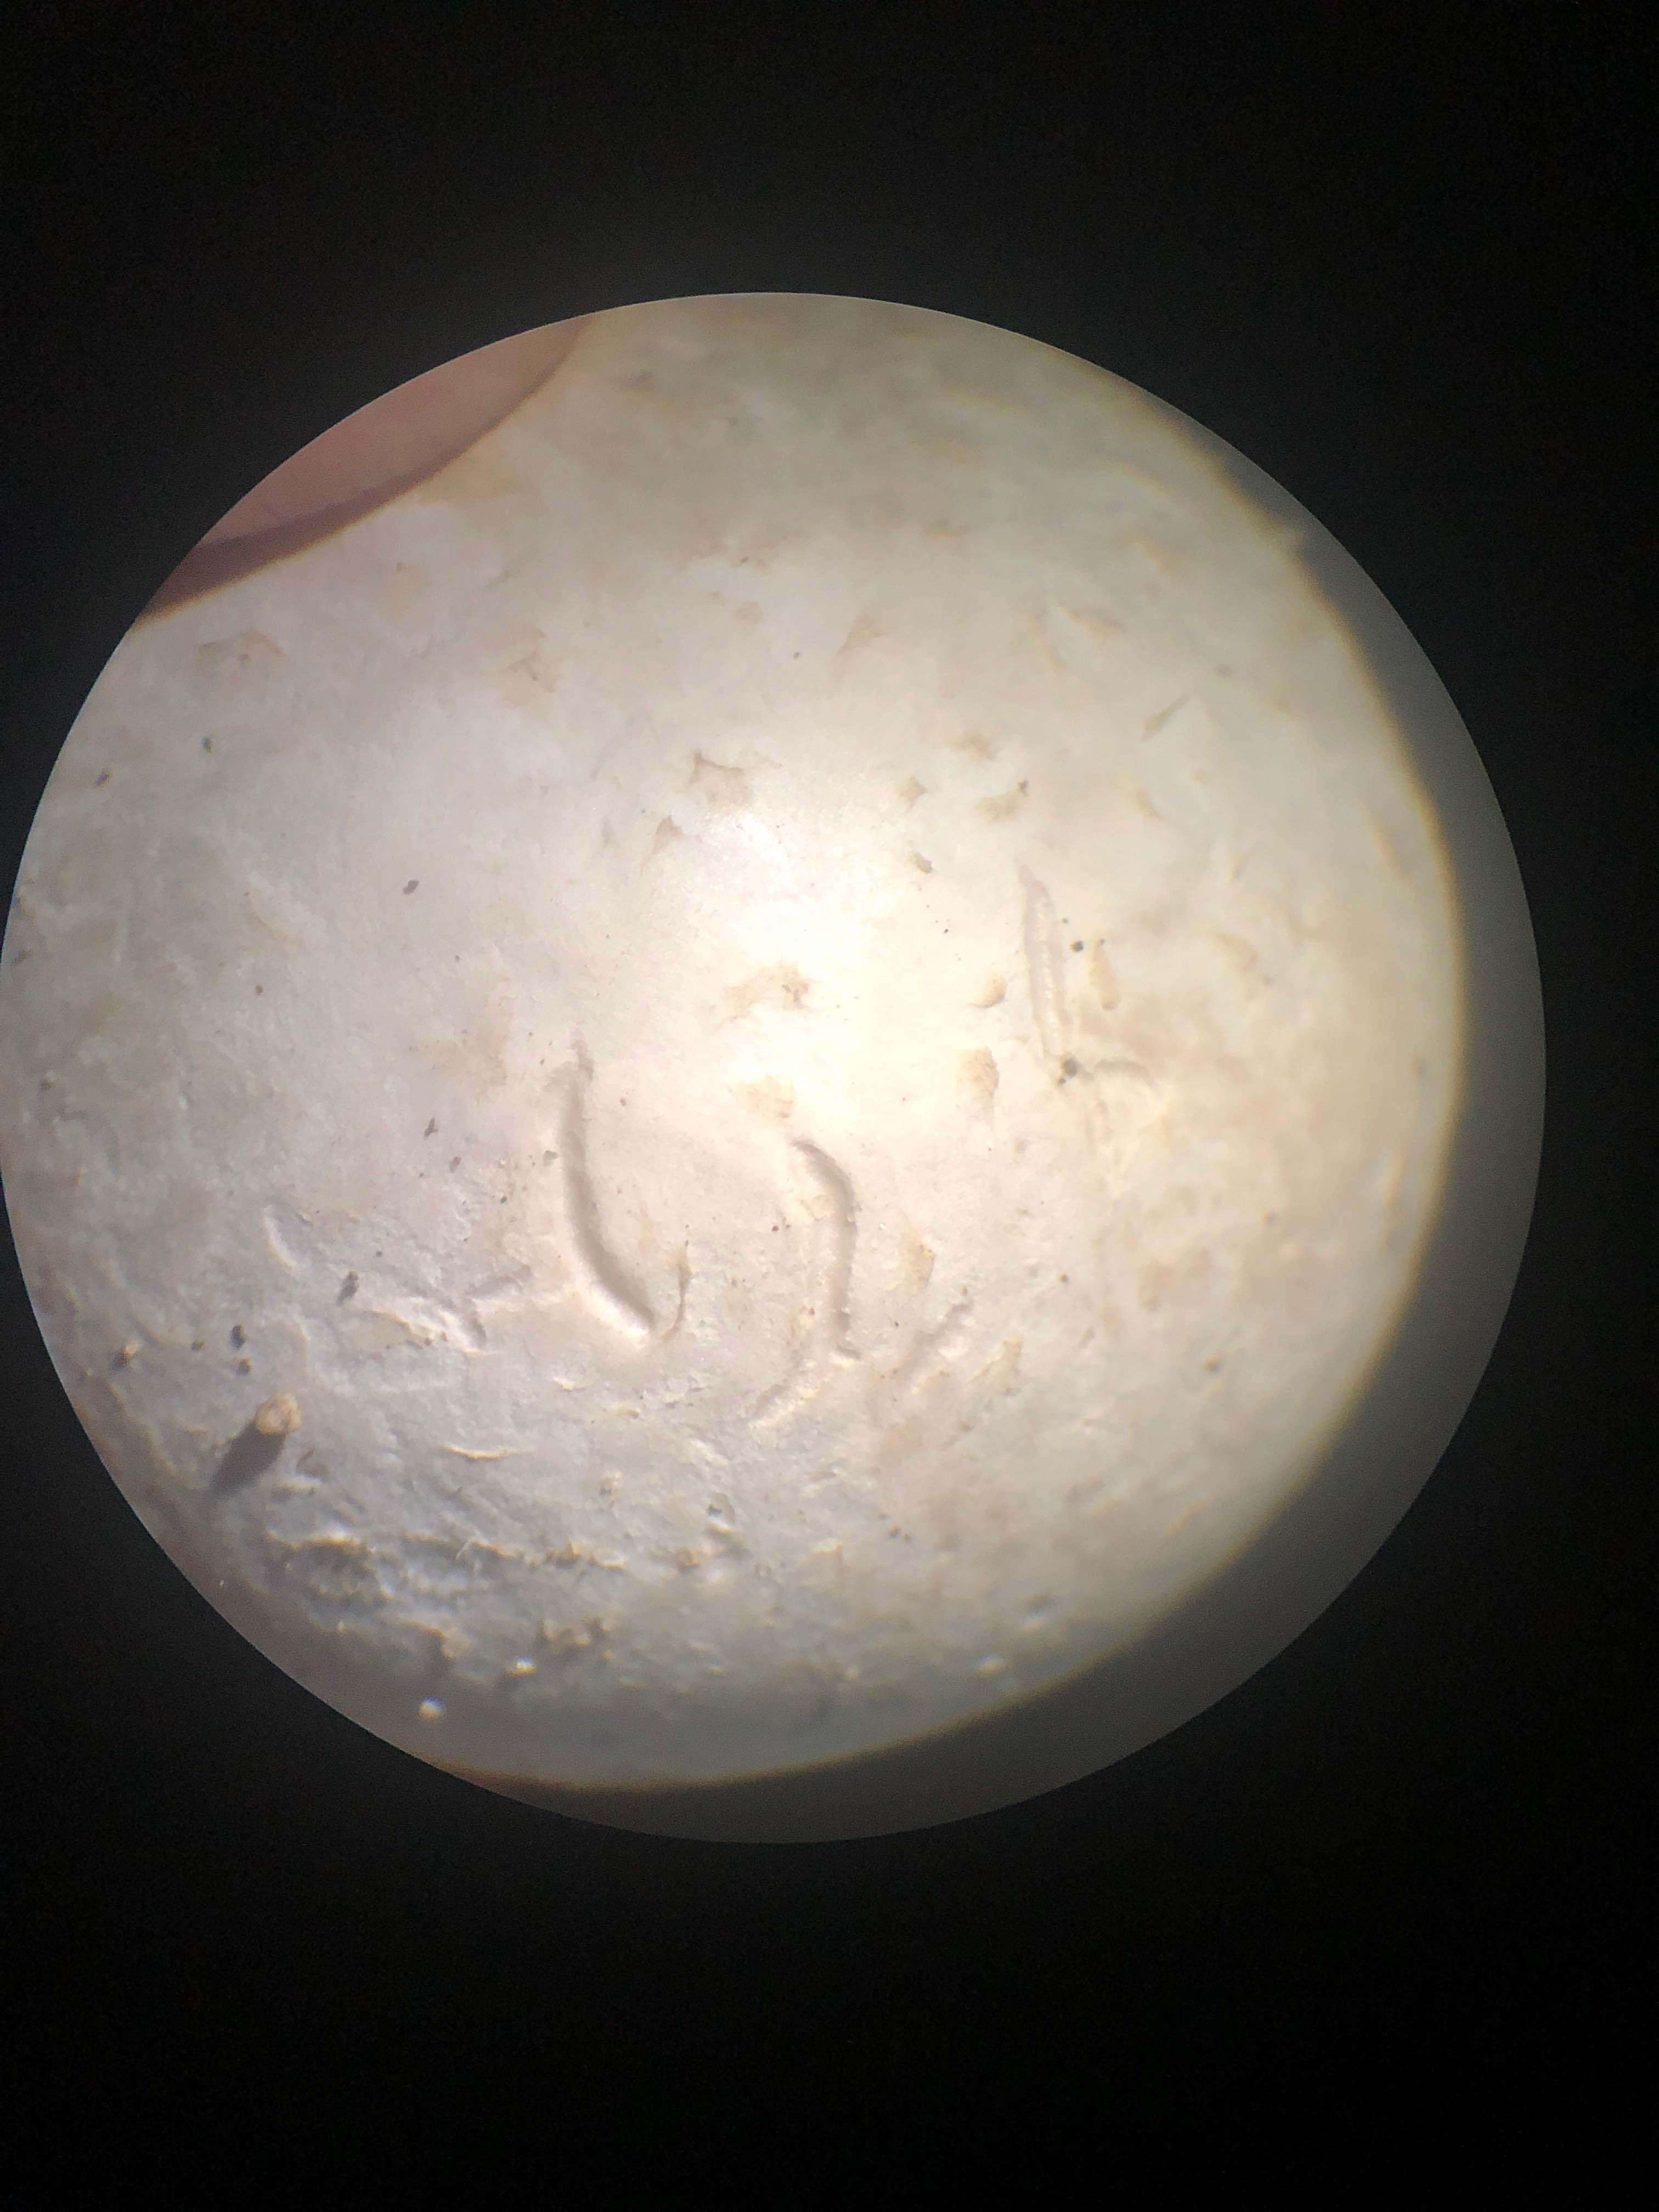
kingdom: Fungi
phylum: Basidiomycota
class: Agaricomycetes
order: Agaricales
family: Lycoperdaceae
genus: Bovista
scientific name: Bovista
